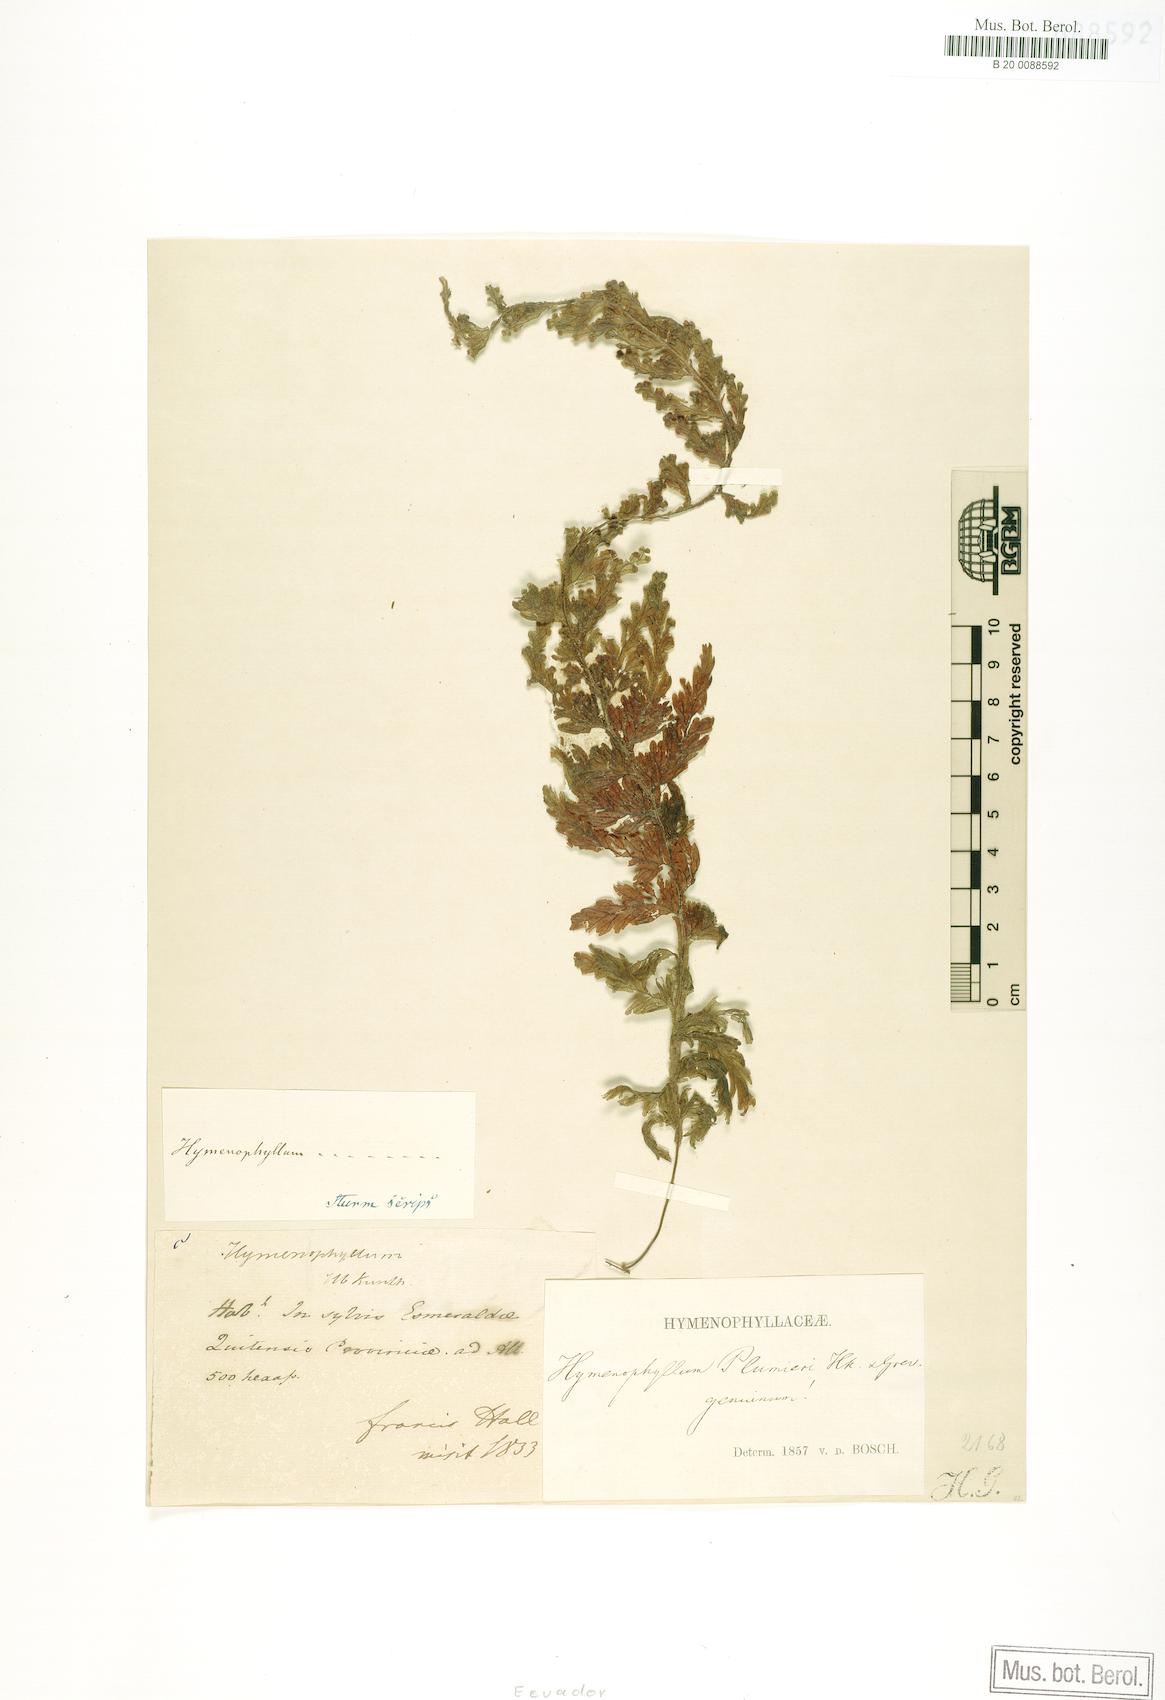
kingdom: Plantae
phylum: Tracheophyta
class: Polypodiopsida
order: Hymenophyllales
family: Hymenophyllaceae
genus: Hymenophyllum
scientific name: Hymenophyllum plumieri
